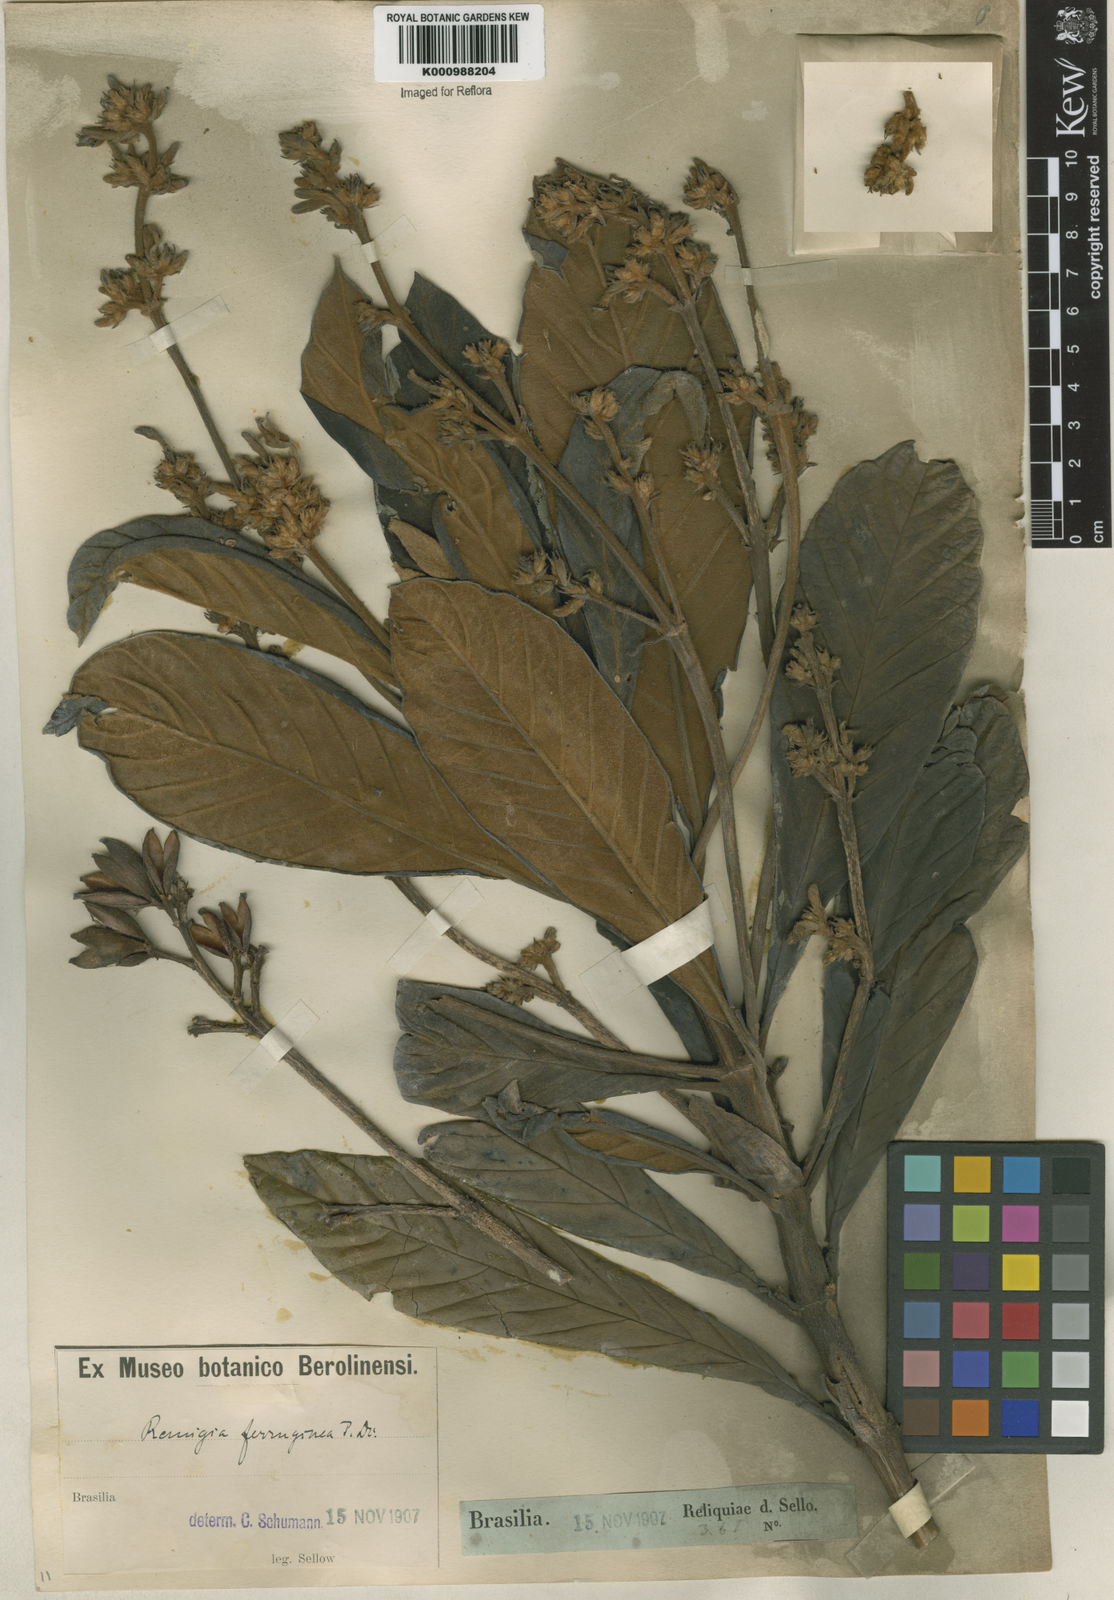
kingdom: Plantae
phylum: Tracheophyta
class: Magnoliopsida
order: Gentianales
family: Rubiaceae
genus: Remijia
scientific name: Remijia ferruginea
